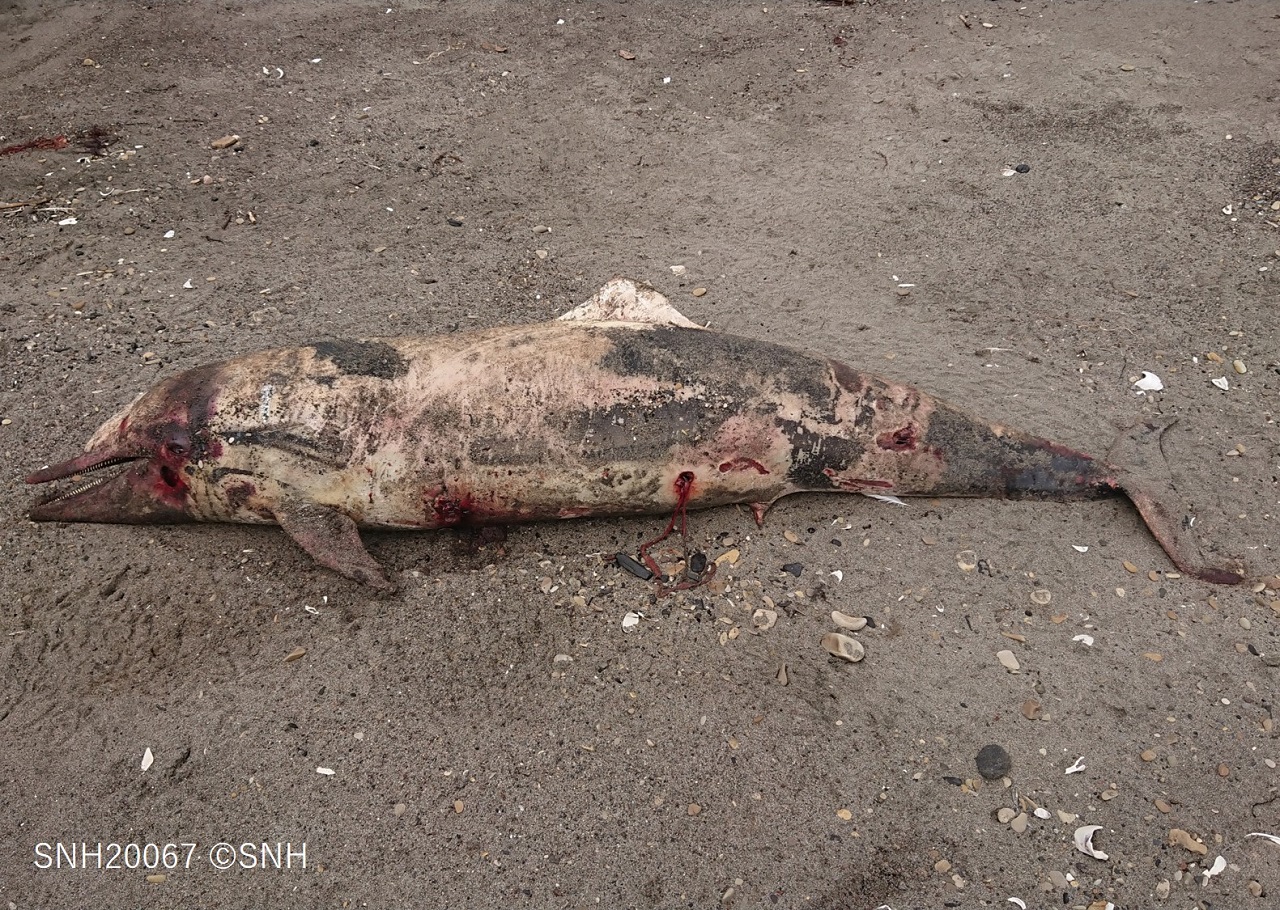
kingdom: Animalia
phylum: Chordata
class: Mammalia
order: Cetacea
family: Delphinidae
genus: Stenella
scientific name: Stenella coeruleoalba
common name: Striped dolphin
